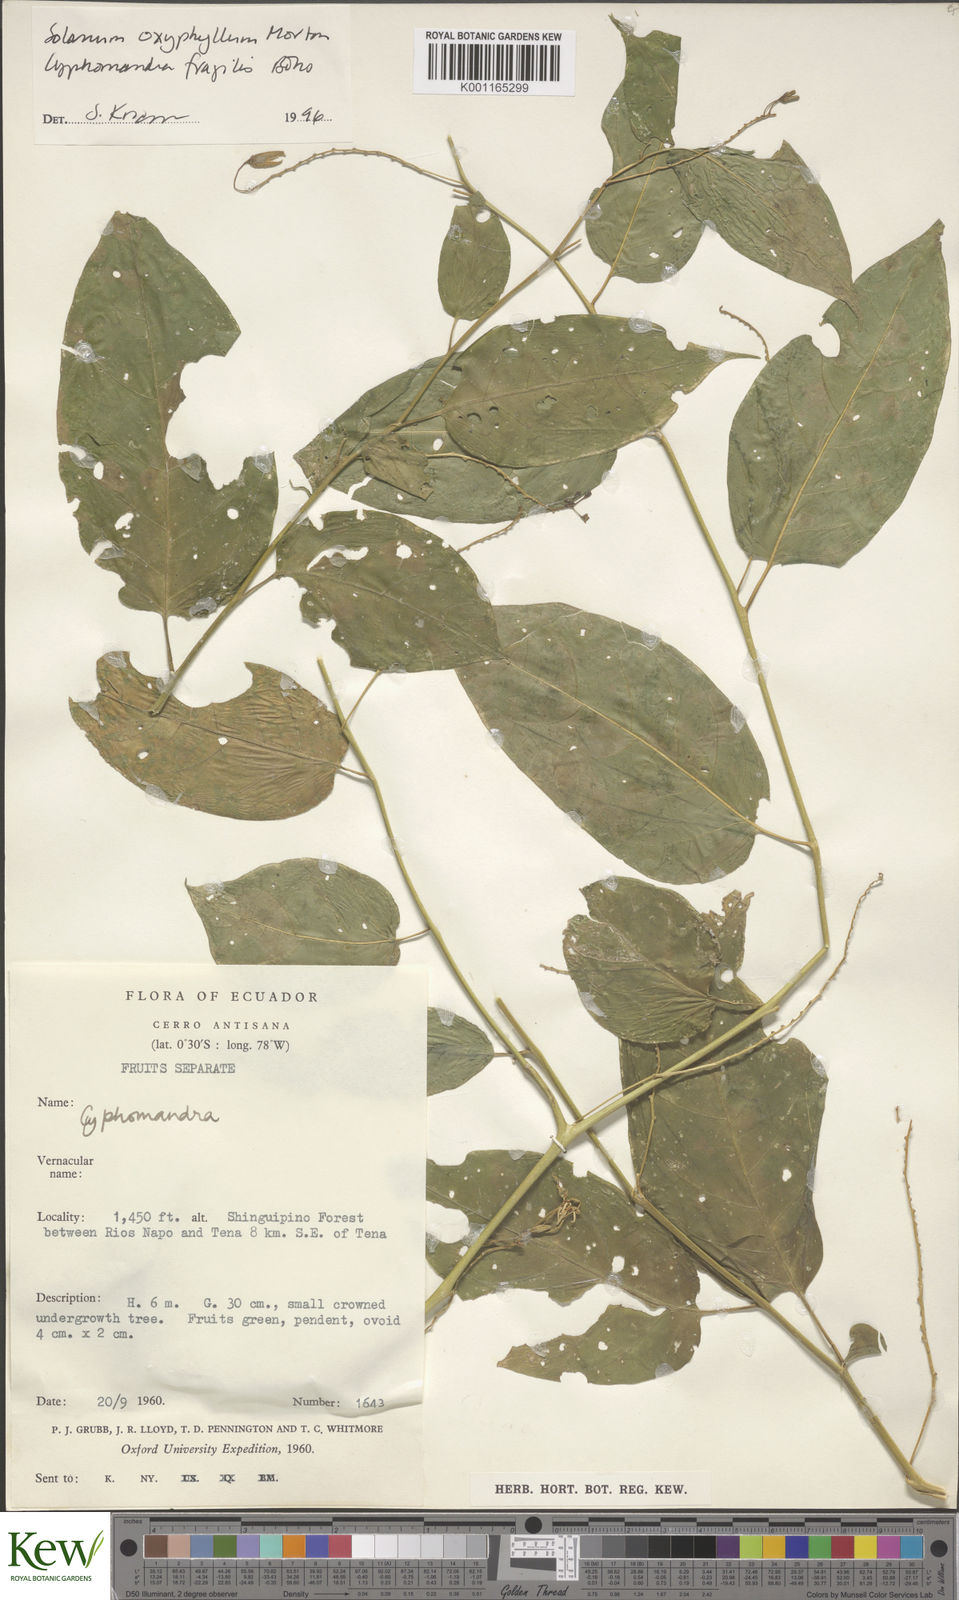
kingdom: Plantae
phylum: Tracheophyta
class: Magnoliopsida
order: Solanales
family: Solanaceae
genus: Solanum
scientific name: Solanum oxyphyllum
